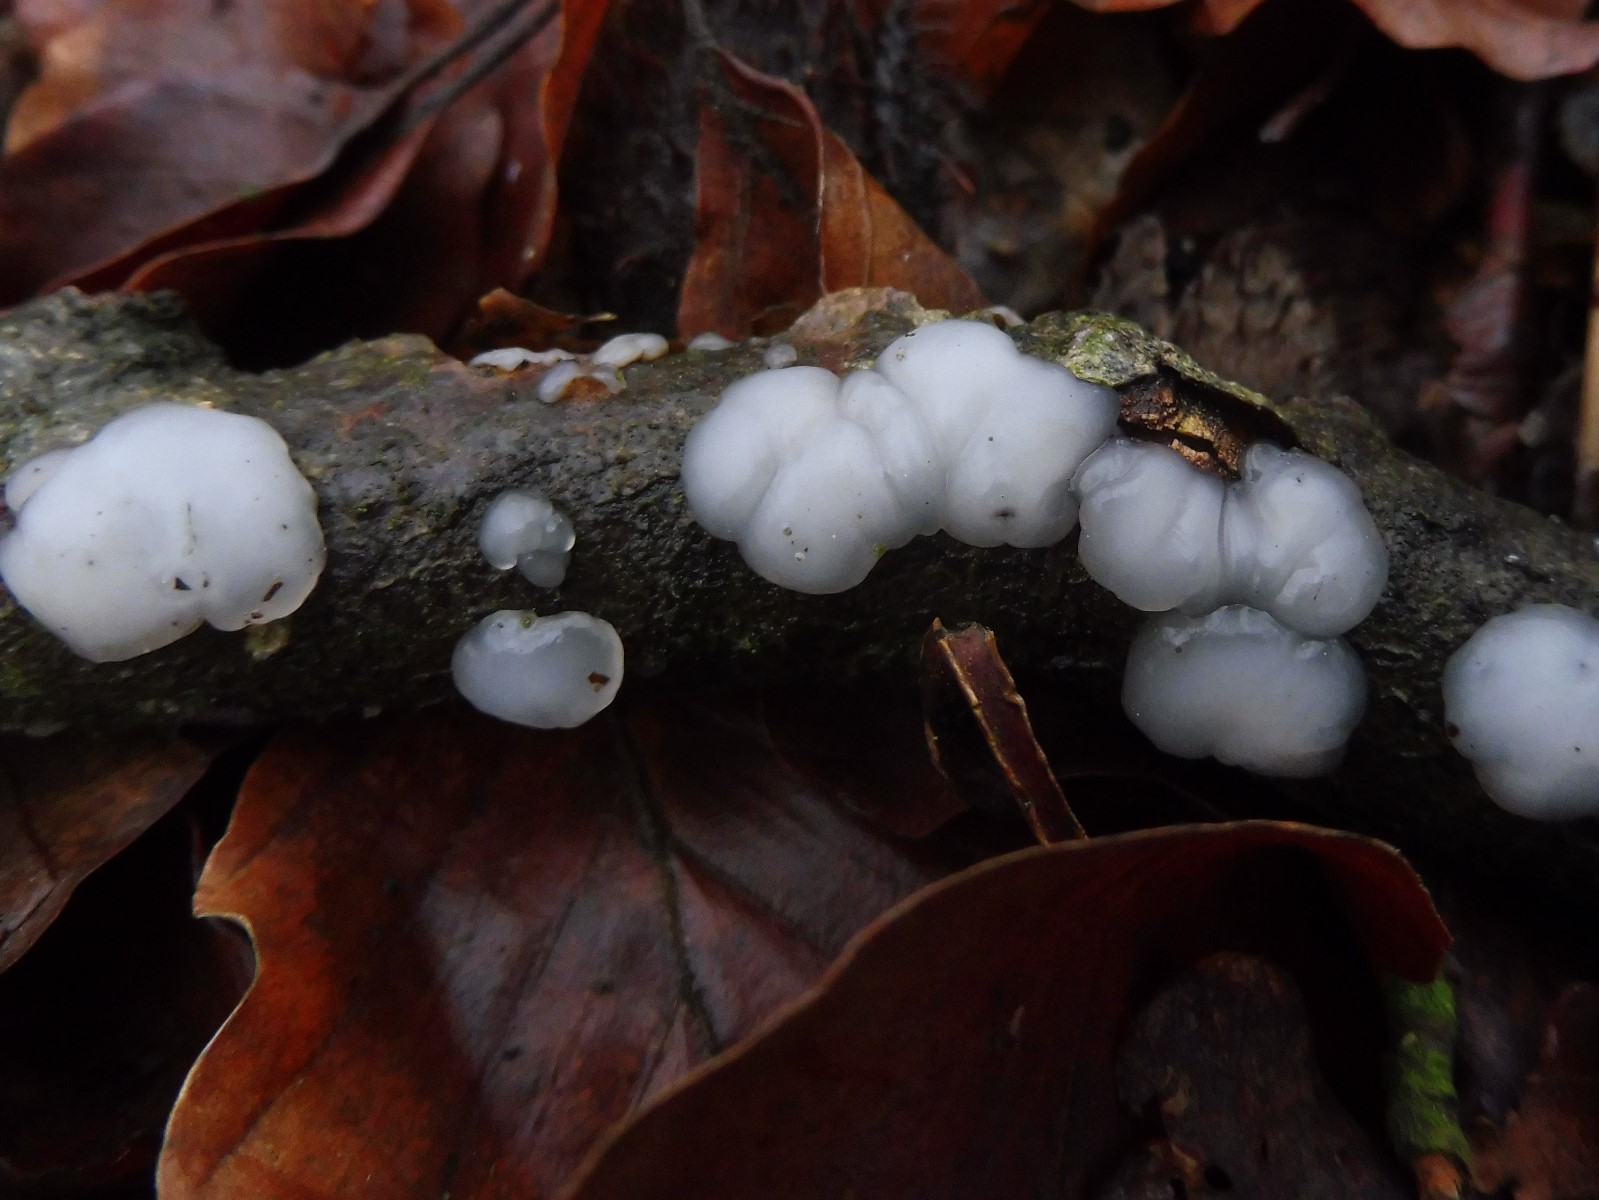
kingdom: Fungi
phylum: Basidiomycota
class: Agaricomycetes
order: Auriculariales
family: Auriculariaceae
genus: Exidia
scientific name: Exidia thuretiana
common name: hvidlig bævretop
